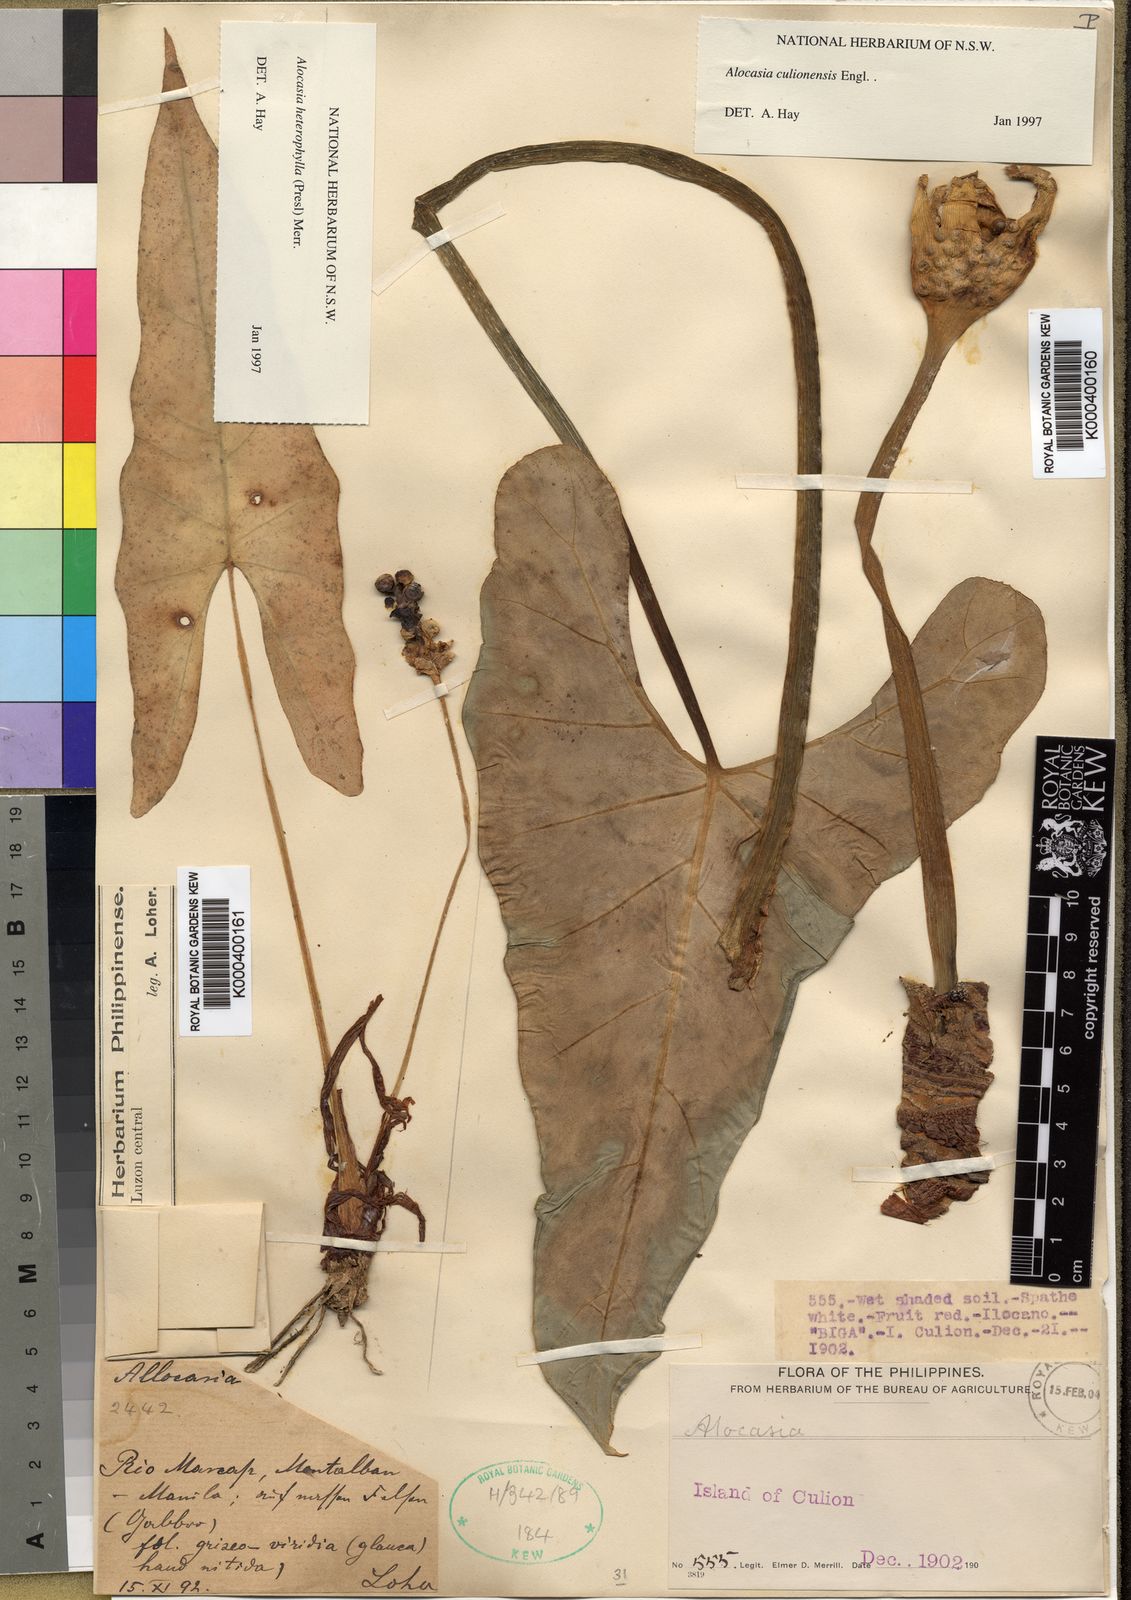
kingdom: Plantae
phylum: Tracheophyta
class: Liliopsida
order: Alismatales
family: Araceae
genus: Alocasia
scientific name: Alocasia heterophylla
